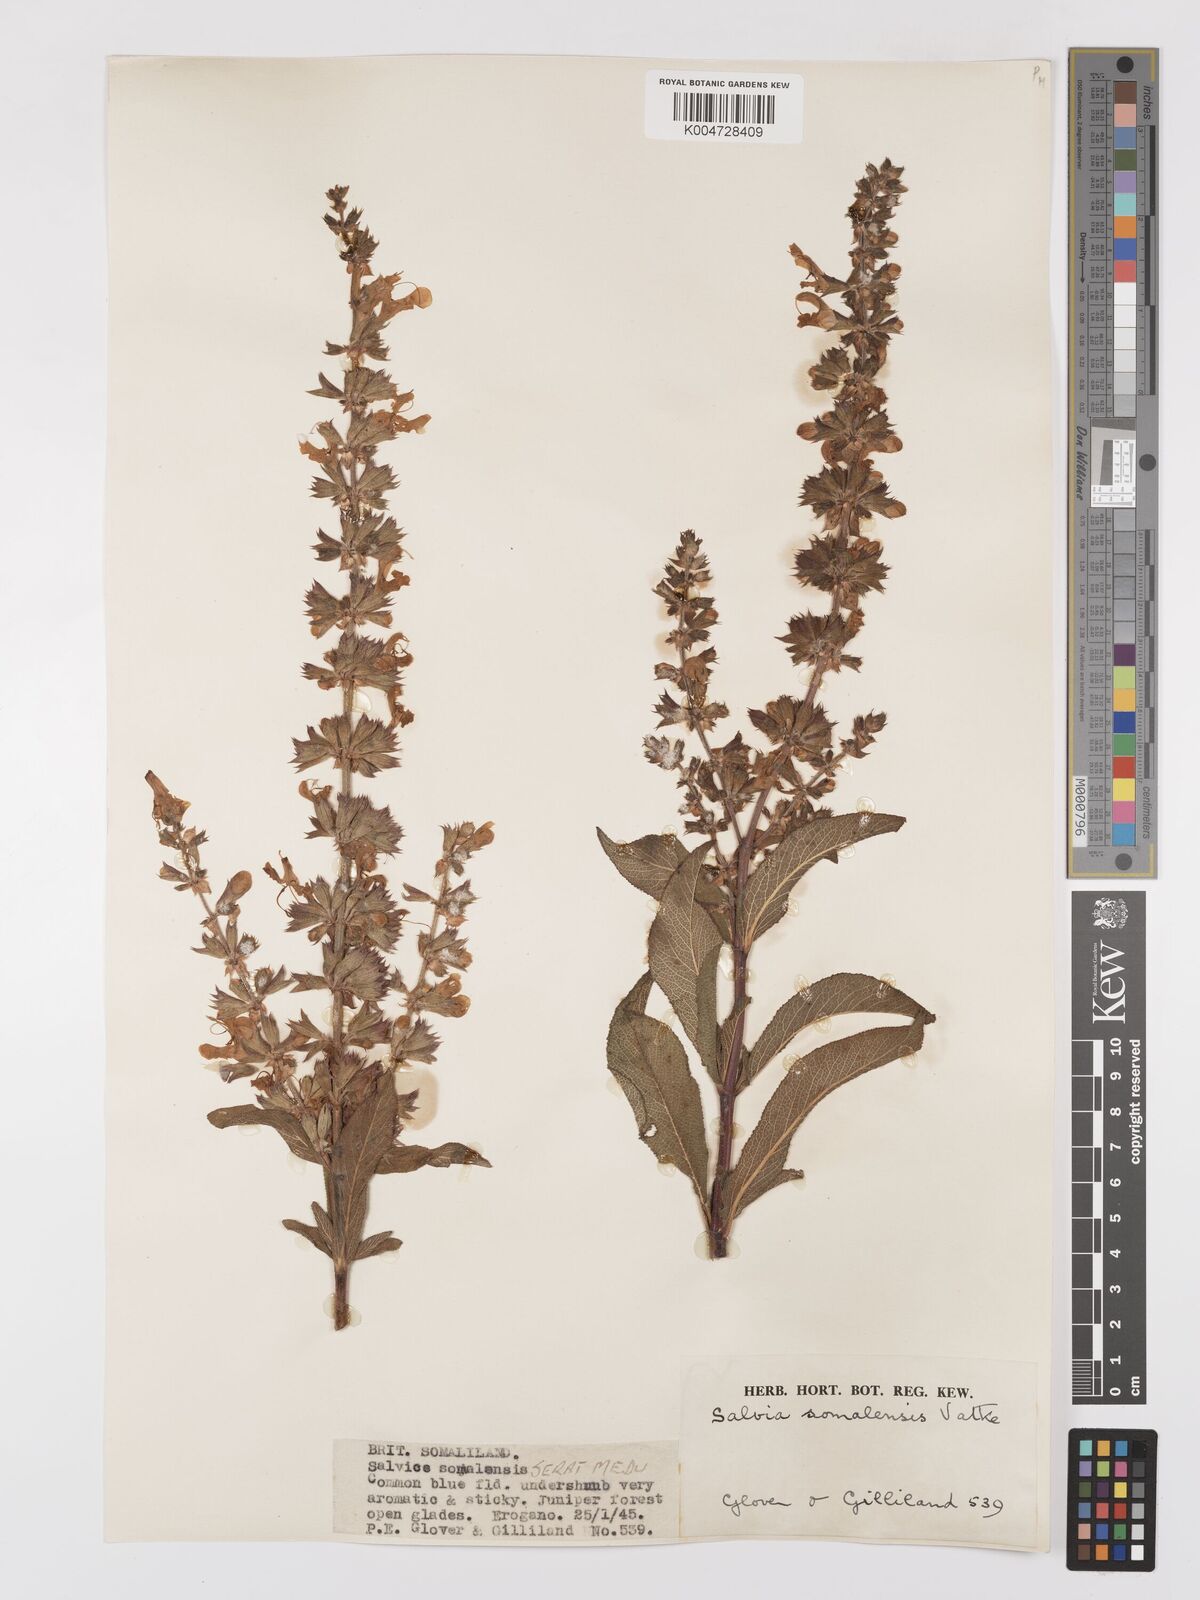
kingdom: Plantae
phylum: Tracheophyta
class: Magnoliopsida
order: Lamiales
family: Lamiaceae
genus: Salvia
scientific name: Salvia somalensis
